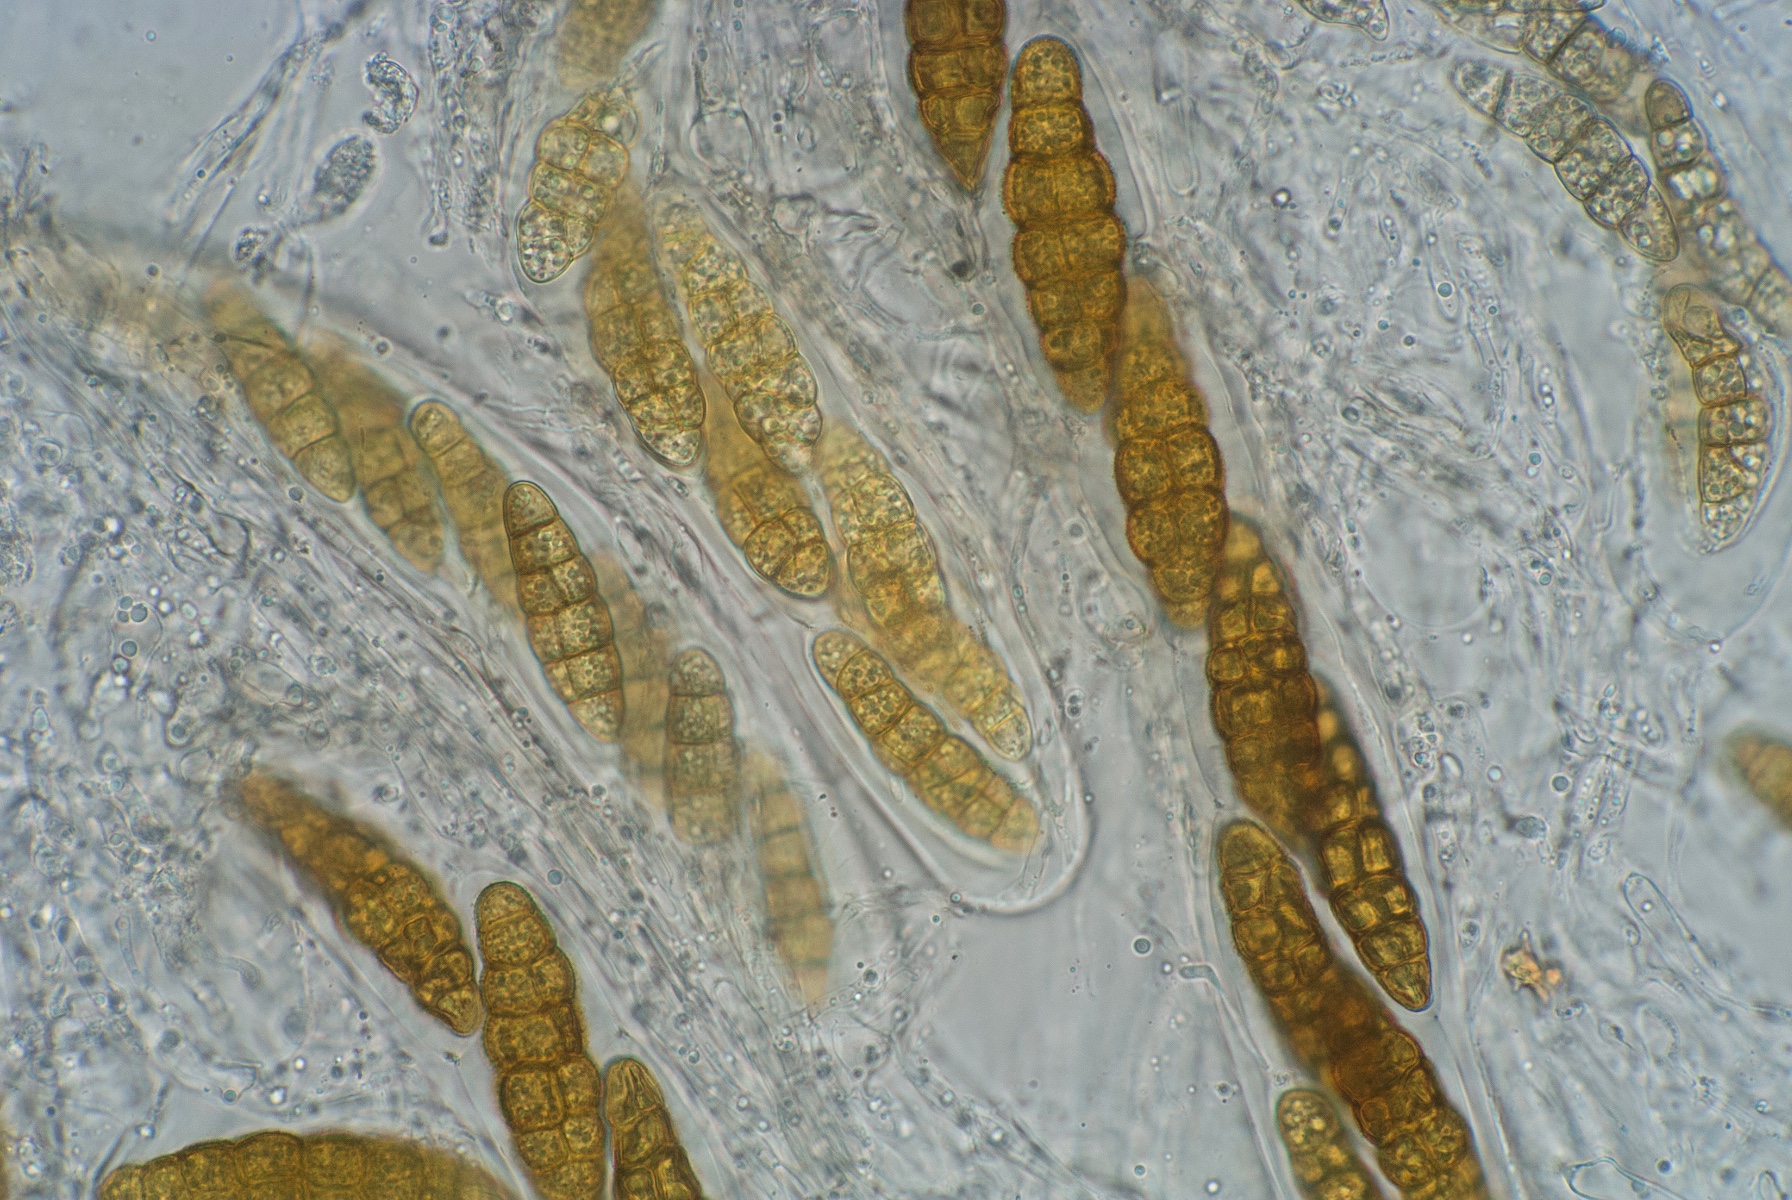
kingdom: Fungi
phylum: Ascomycota
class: Dothideomycetes
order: Pleosporales
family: Pleomassariaceae
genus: Pleomassaria
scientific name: Pleomassaria siparia
